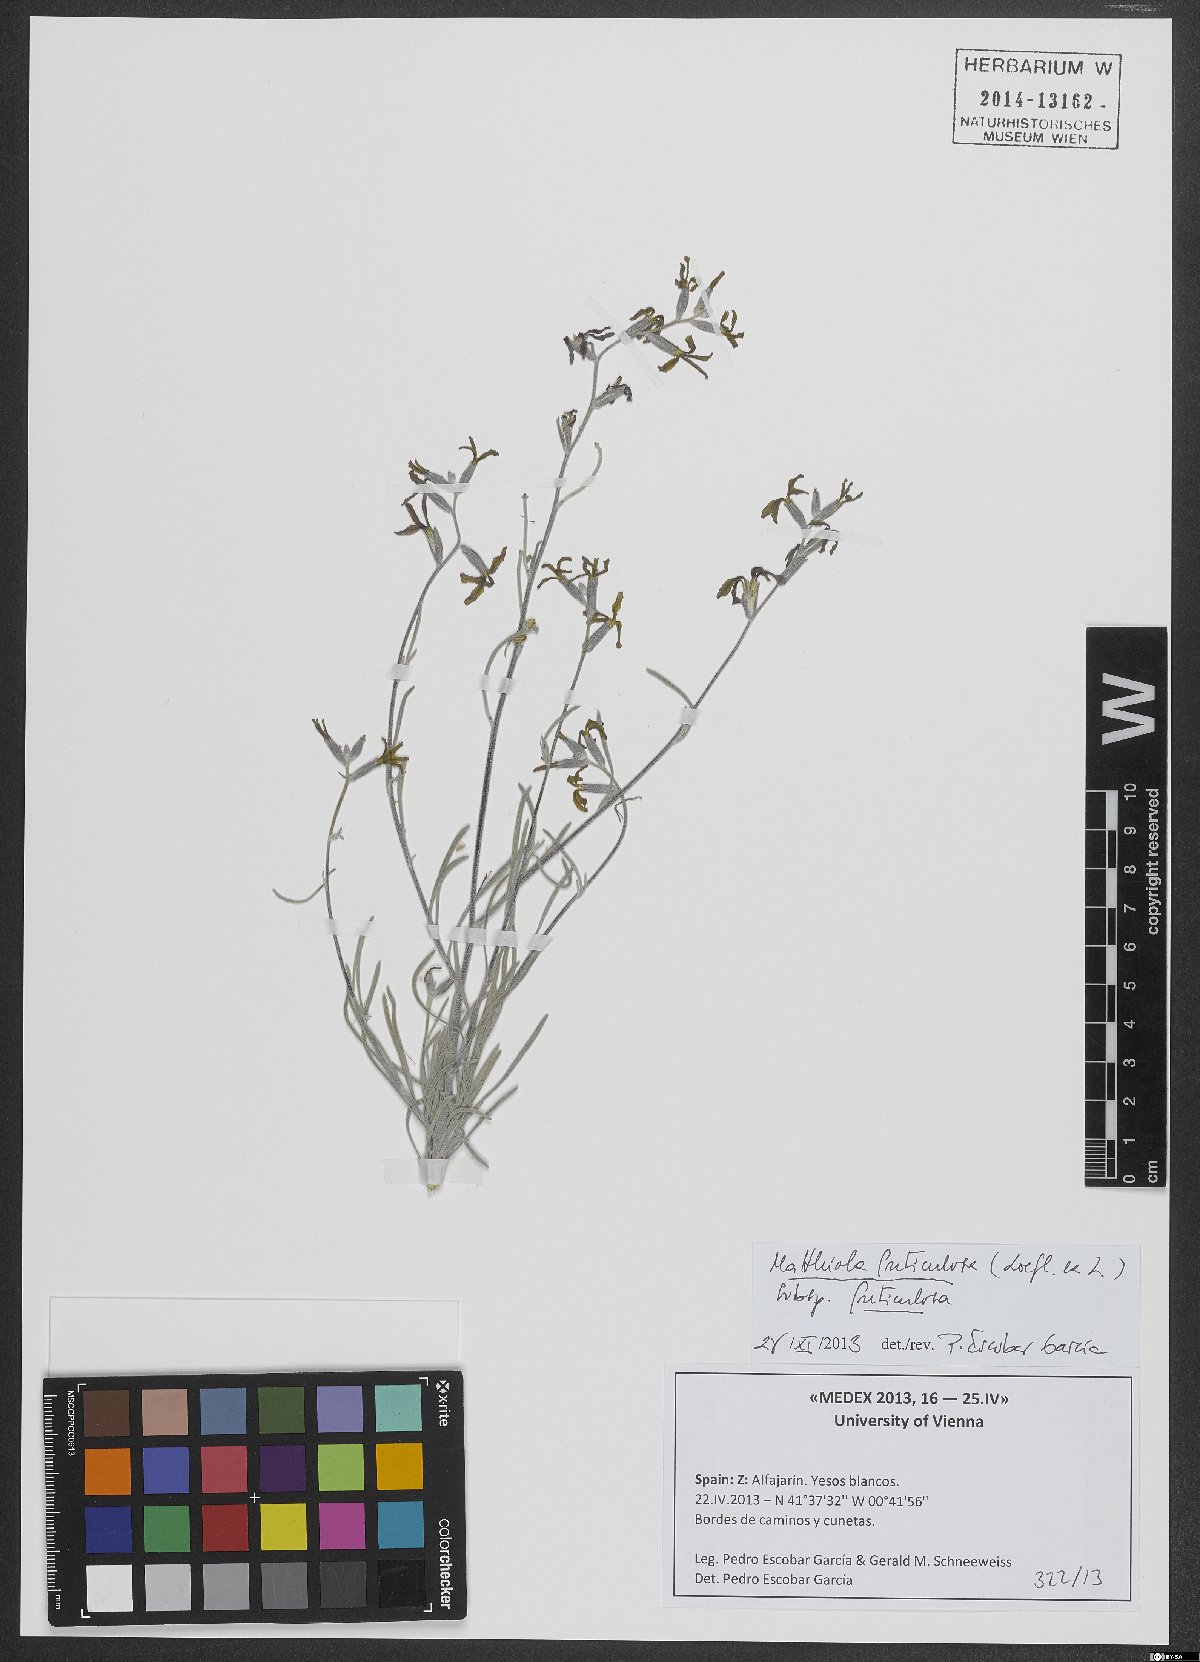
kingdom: Plantae
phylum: Tracheophyta
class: Magnoliopsida
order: Brassicales
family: Brassicaceae
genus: Matthiola
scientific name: Matthiola fruticulosa
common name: Sad stock
